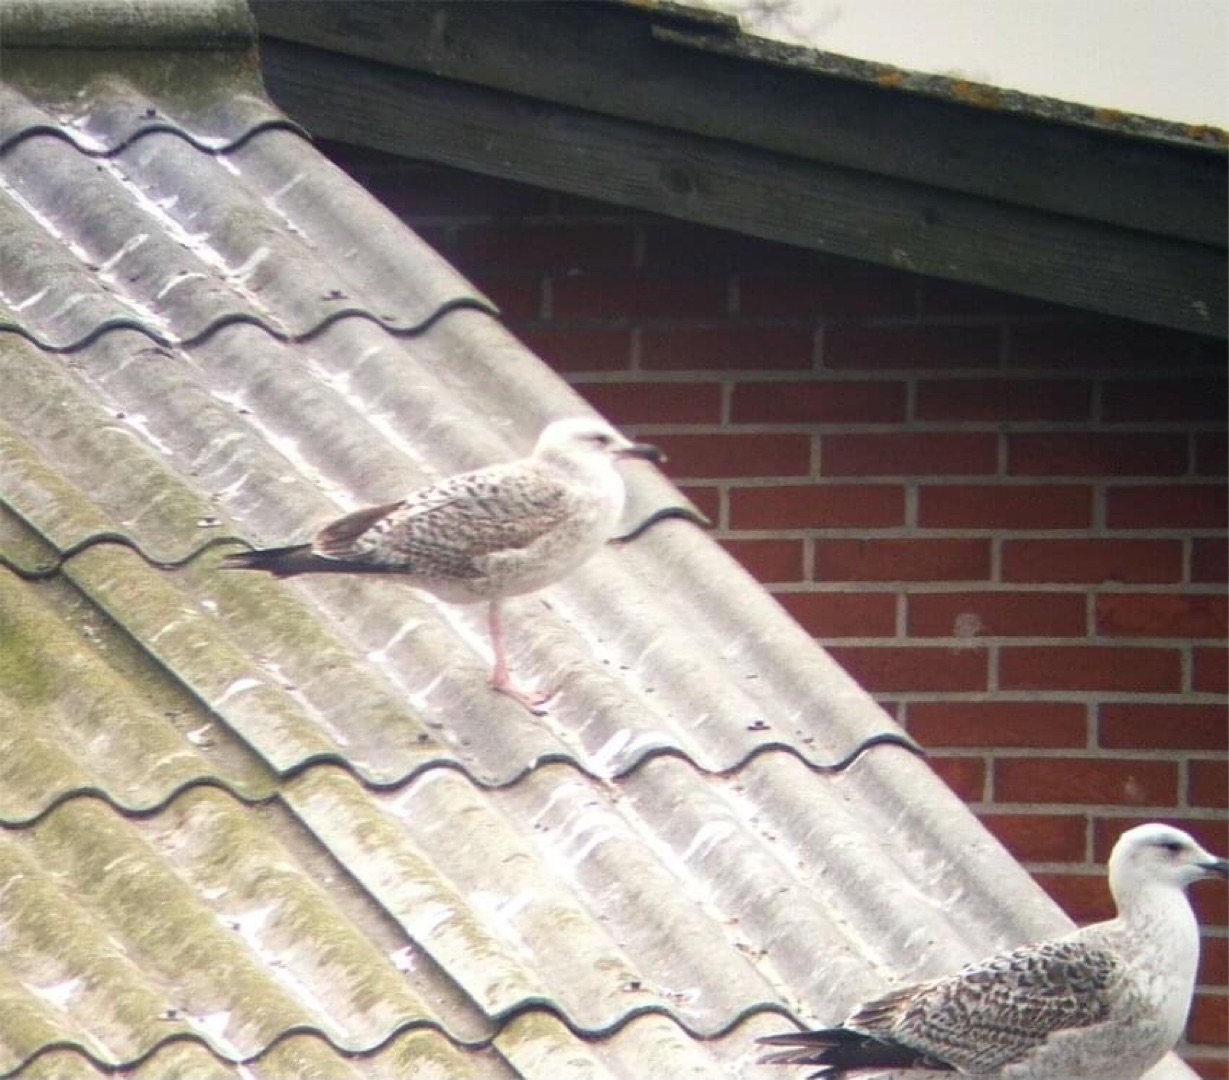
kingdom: Animalia
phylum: Chordata
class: Aves
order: Charadriiformes
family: Laridae
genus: Larus
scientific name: Larus michahellis
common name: Middelhavssølvmåge
